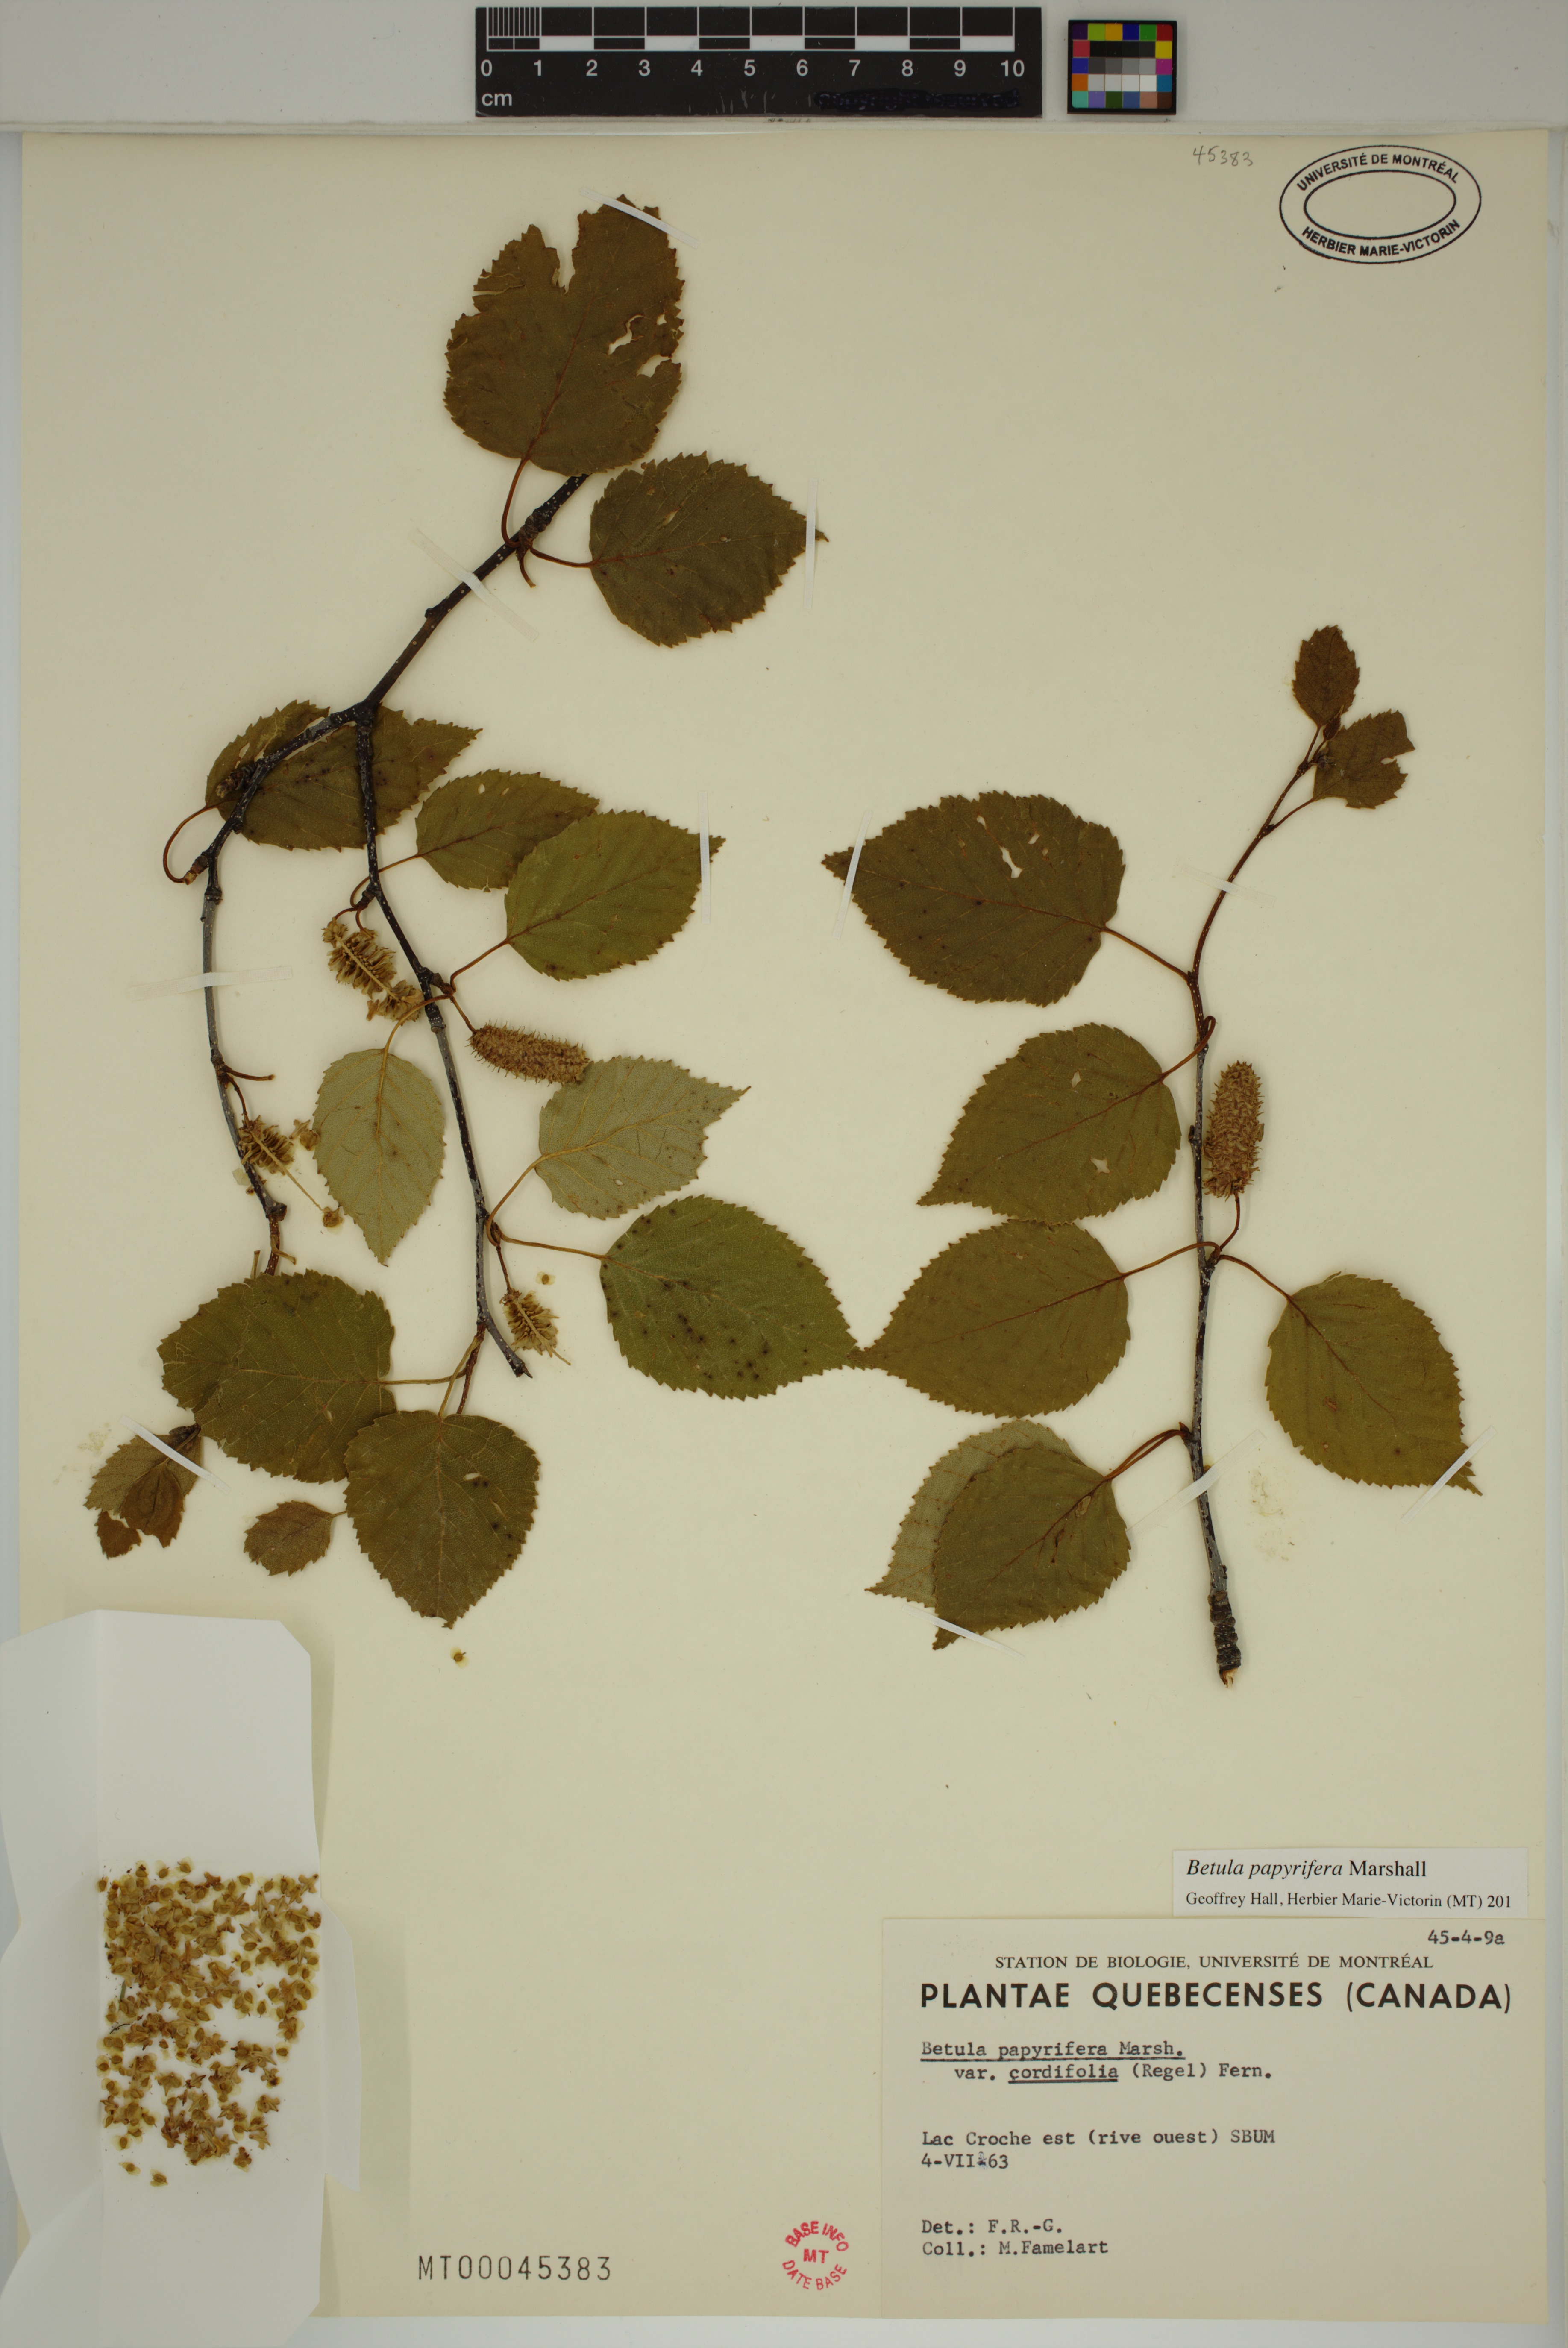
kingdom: Plantae
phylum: Tracheophyta
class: Magnoliopsida
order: Fagales
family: Betulaceae
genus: Betula
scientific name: Betula papyrifera
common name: Paper birch
